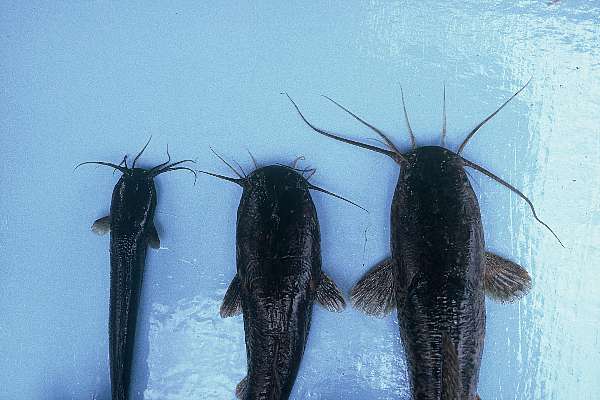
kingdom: Animalia
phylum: Chordata
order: Siluriformes
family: Clariidae
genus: Clarias
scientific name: Clarias gariepinus
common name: African catfish
